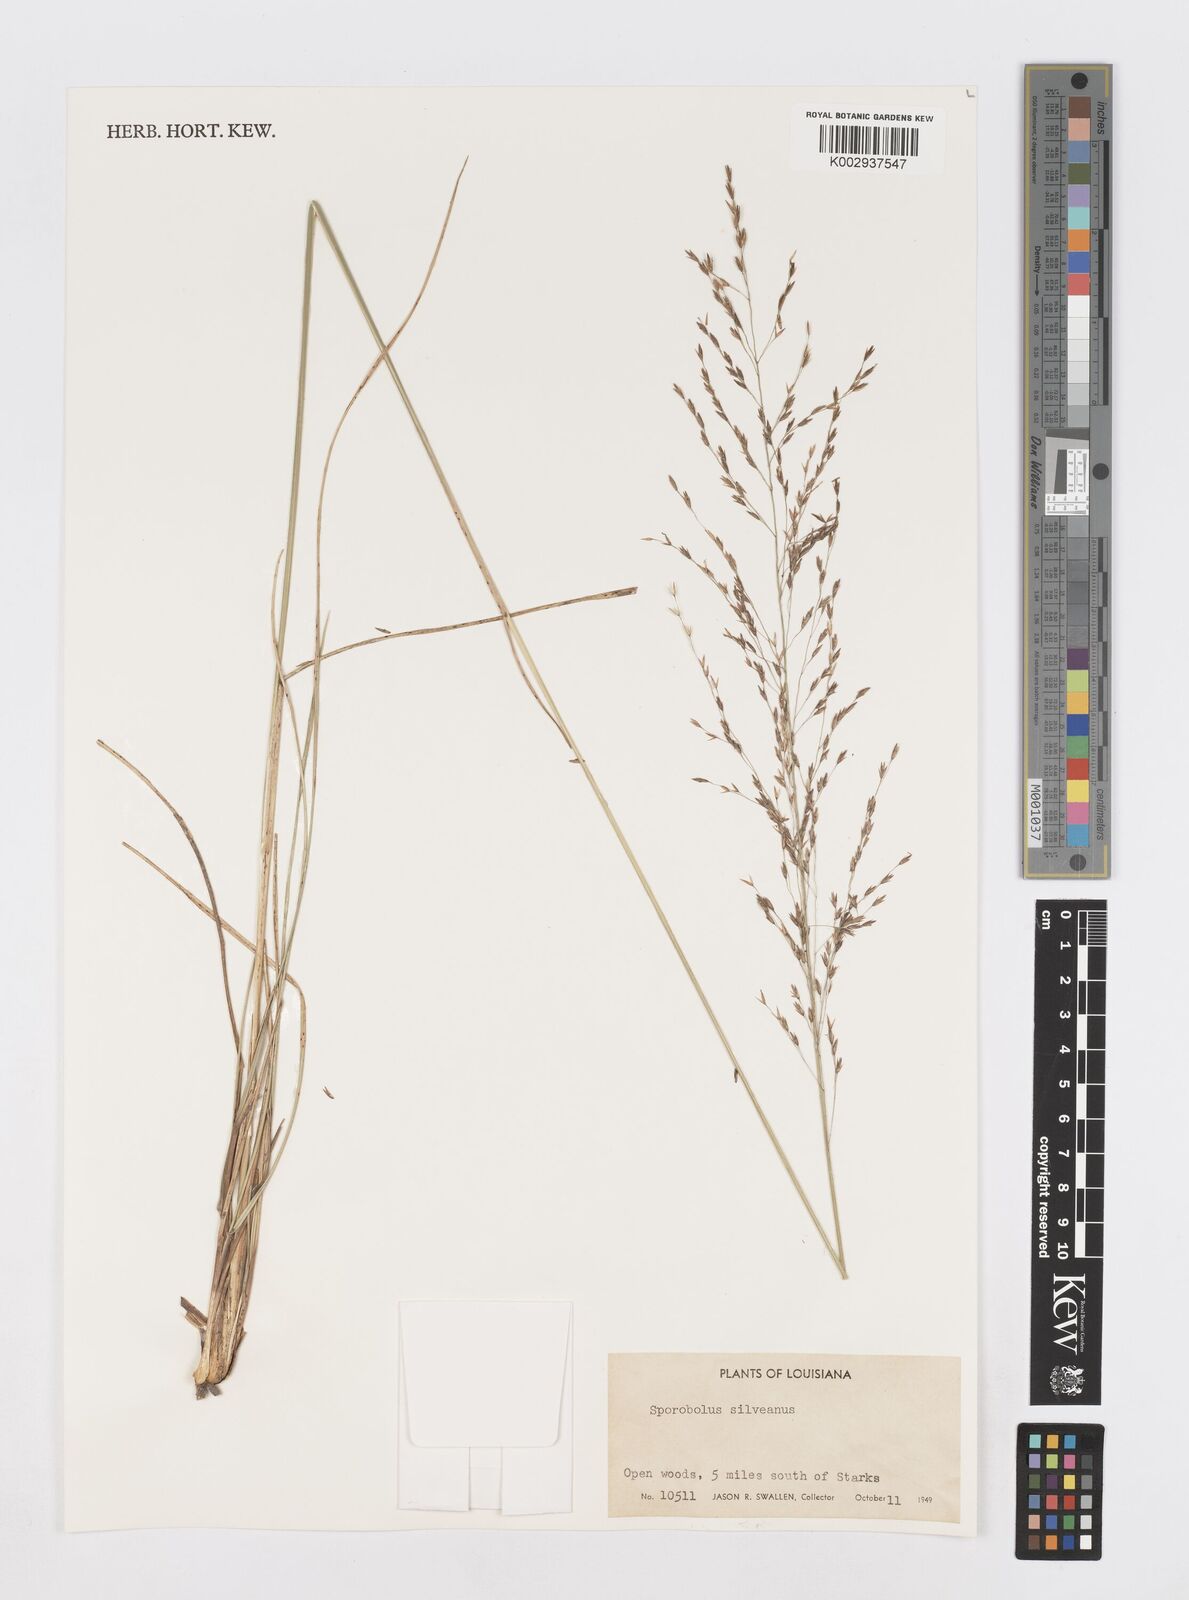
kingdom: Plantae
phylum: Tracheophyta
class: Liliopsida
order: Poales
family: Poaceae
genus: Sporobolus
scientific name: Sporobolus silveanus
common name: Silveus's dropseed
